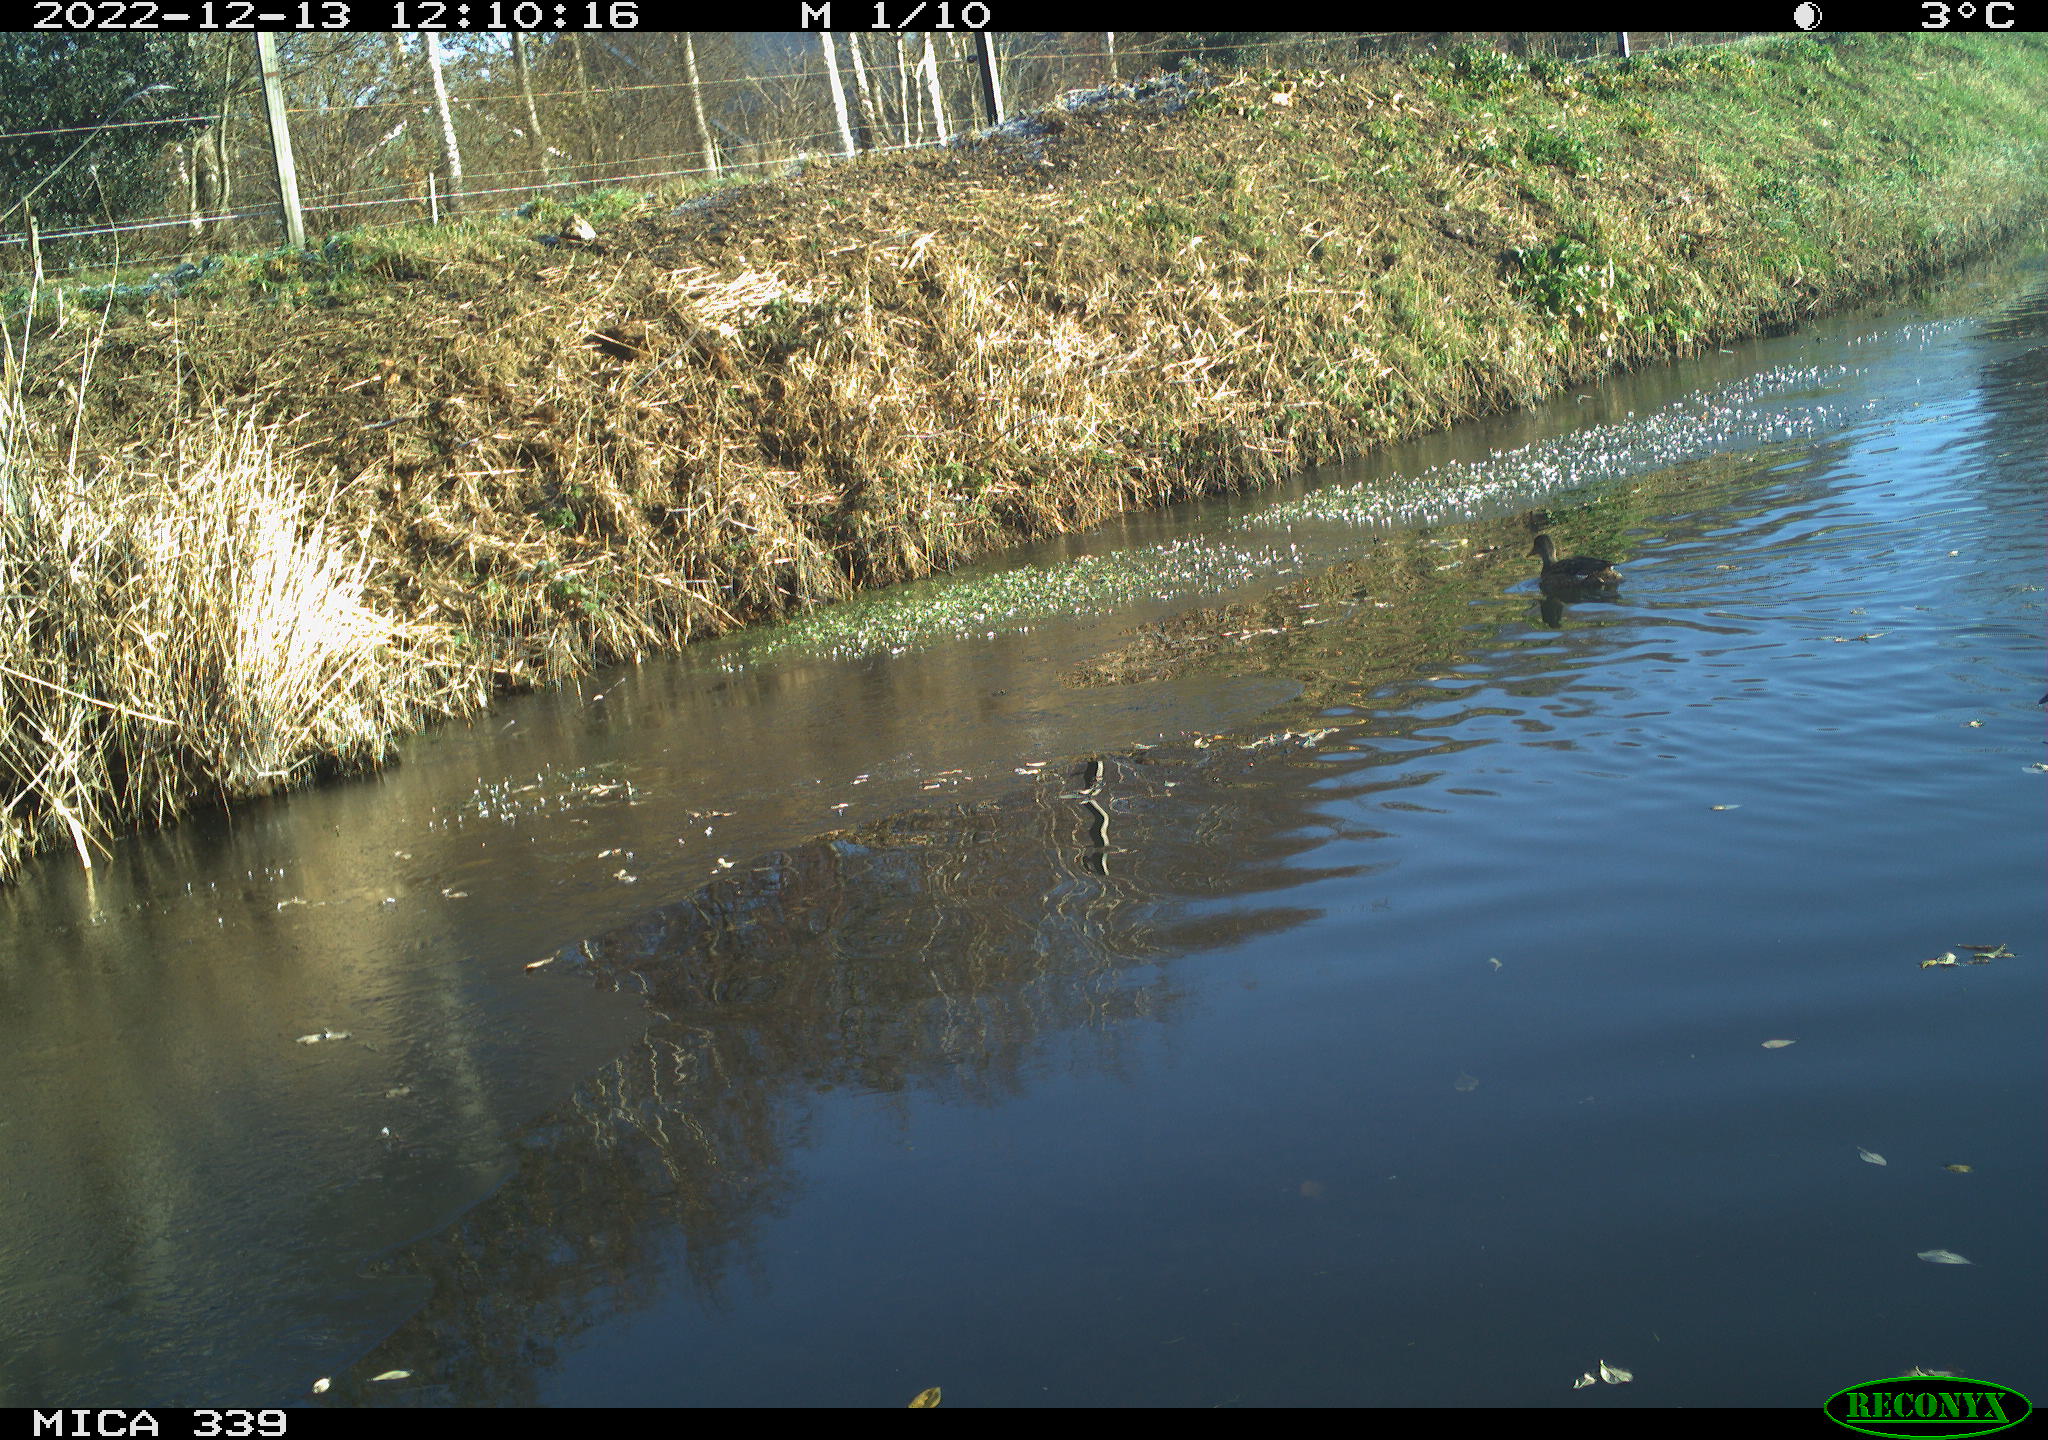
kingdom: Animalia
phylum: Chordata
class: Aves
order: Gruiformes
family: Rallidae
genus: Gallinula
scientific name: Gallinula chloropus
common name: Common moorhen
